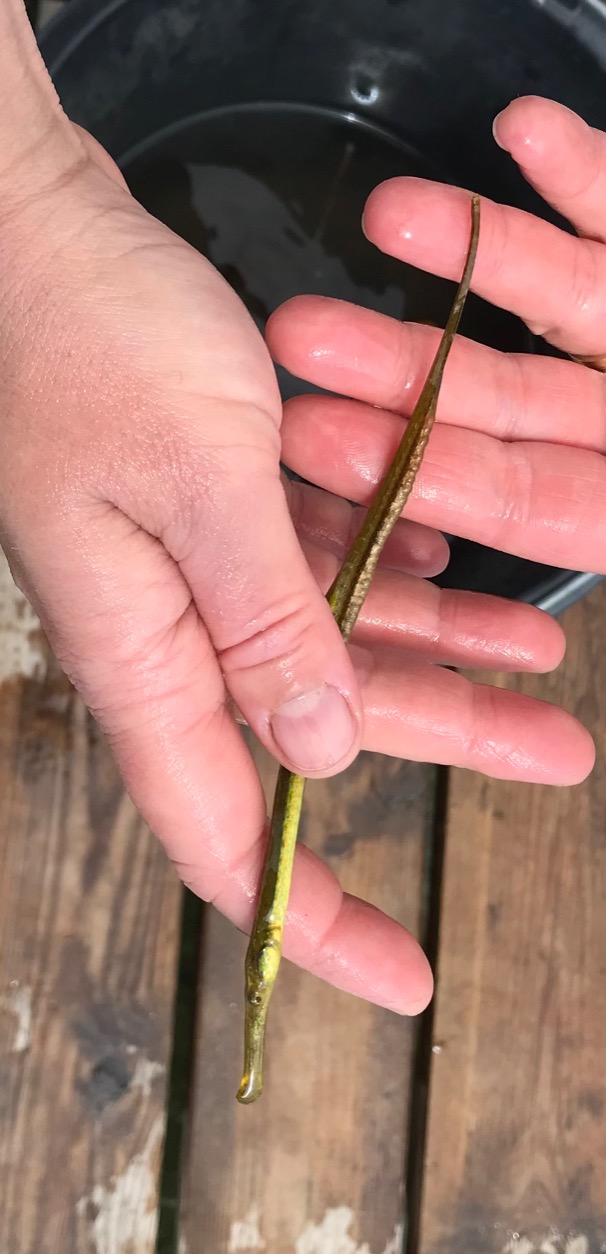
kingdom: Animalia
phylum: Chordata
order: Syngnathiformes
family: Syngnathidae
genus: Syngnathus
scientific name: Syngnathus typhle
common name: Almindelig tangnål
